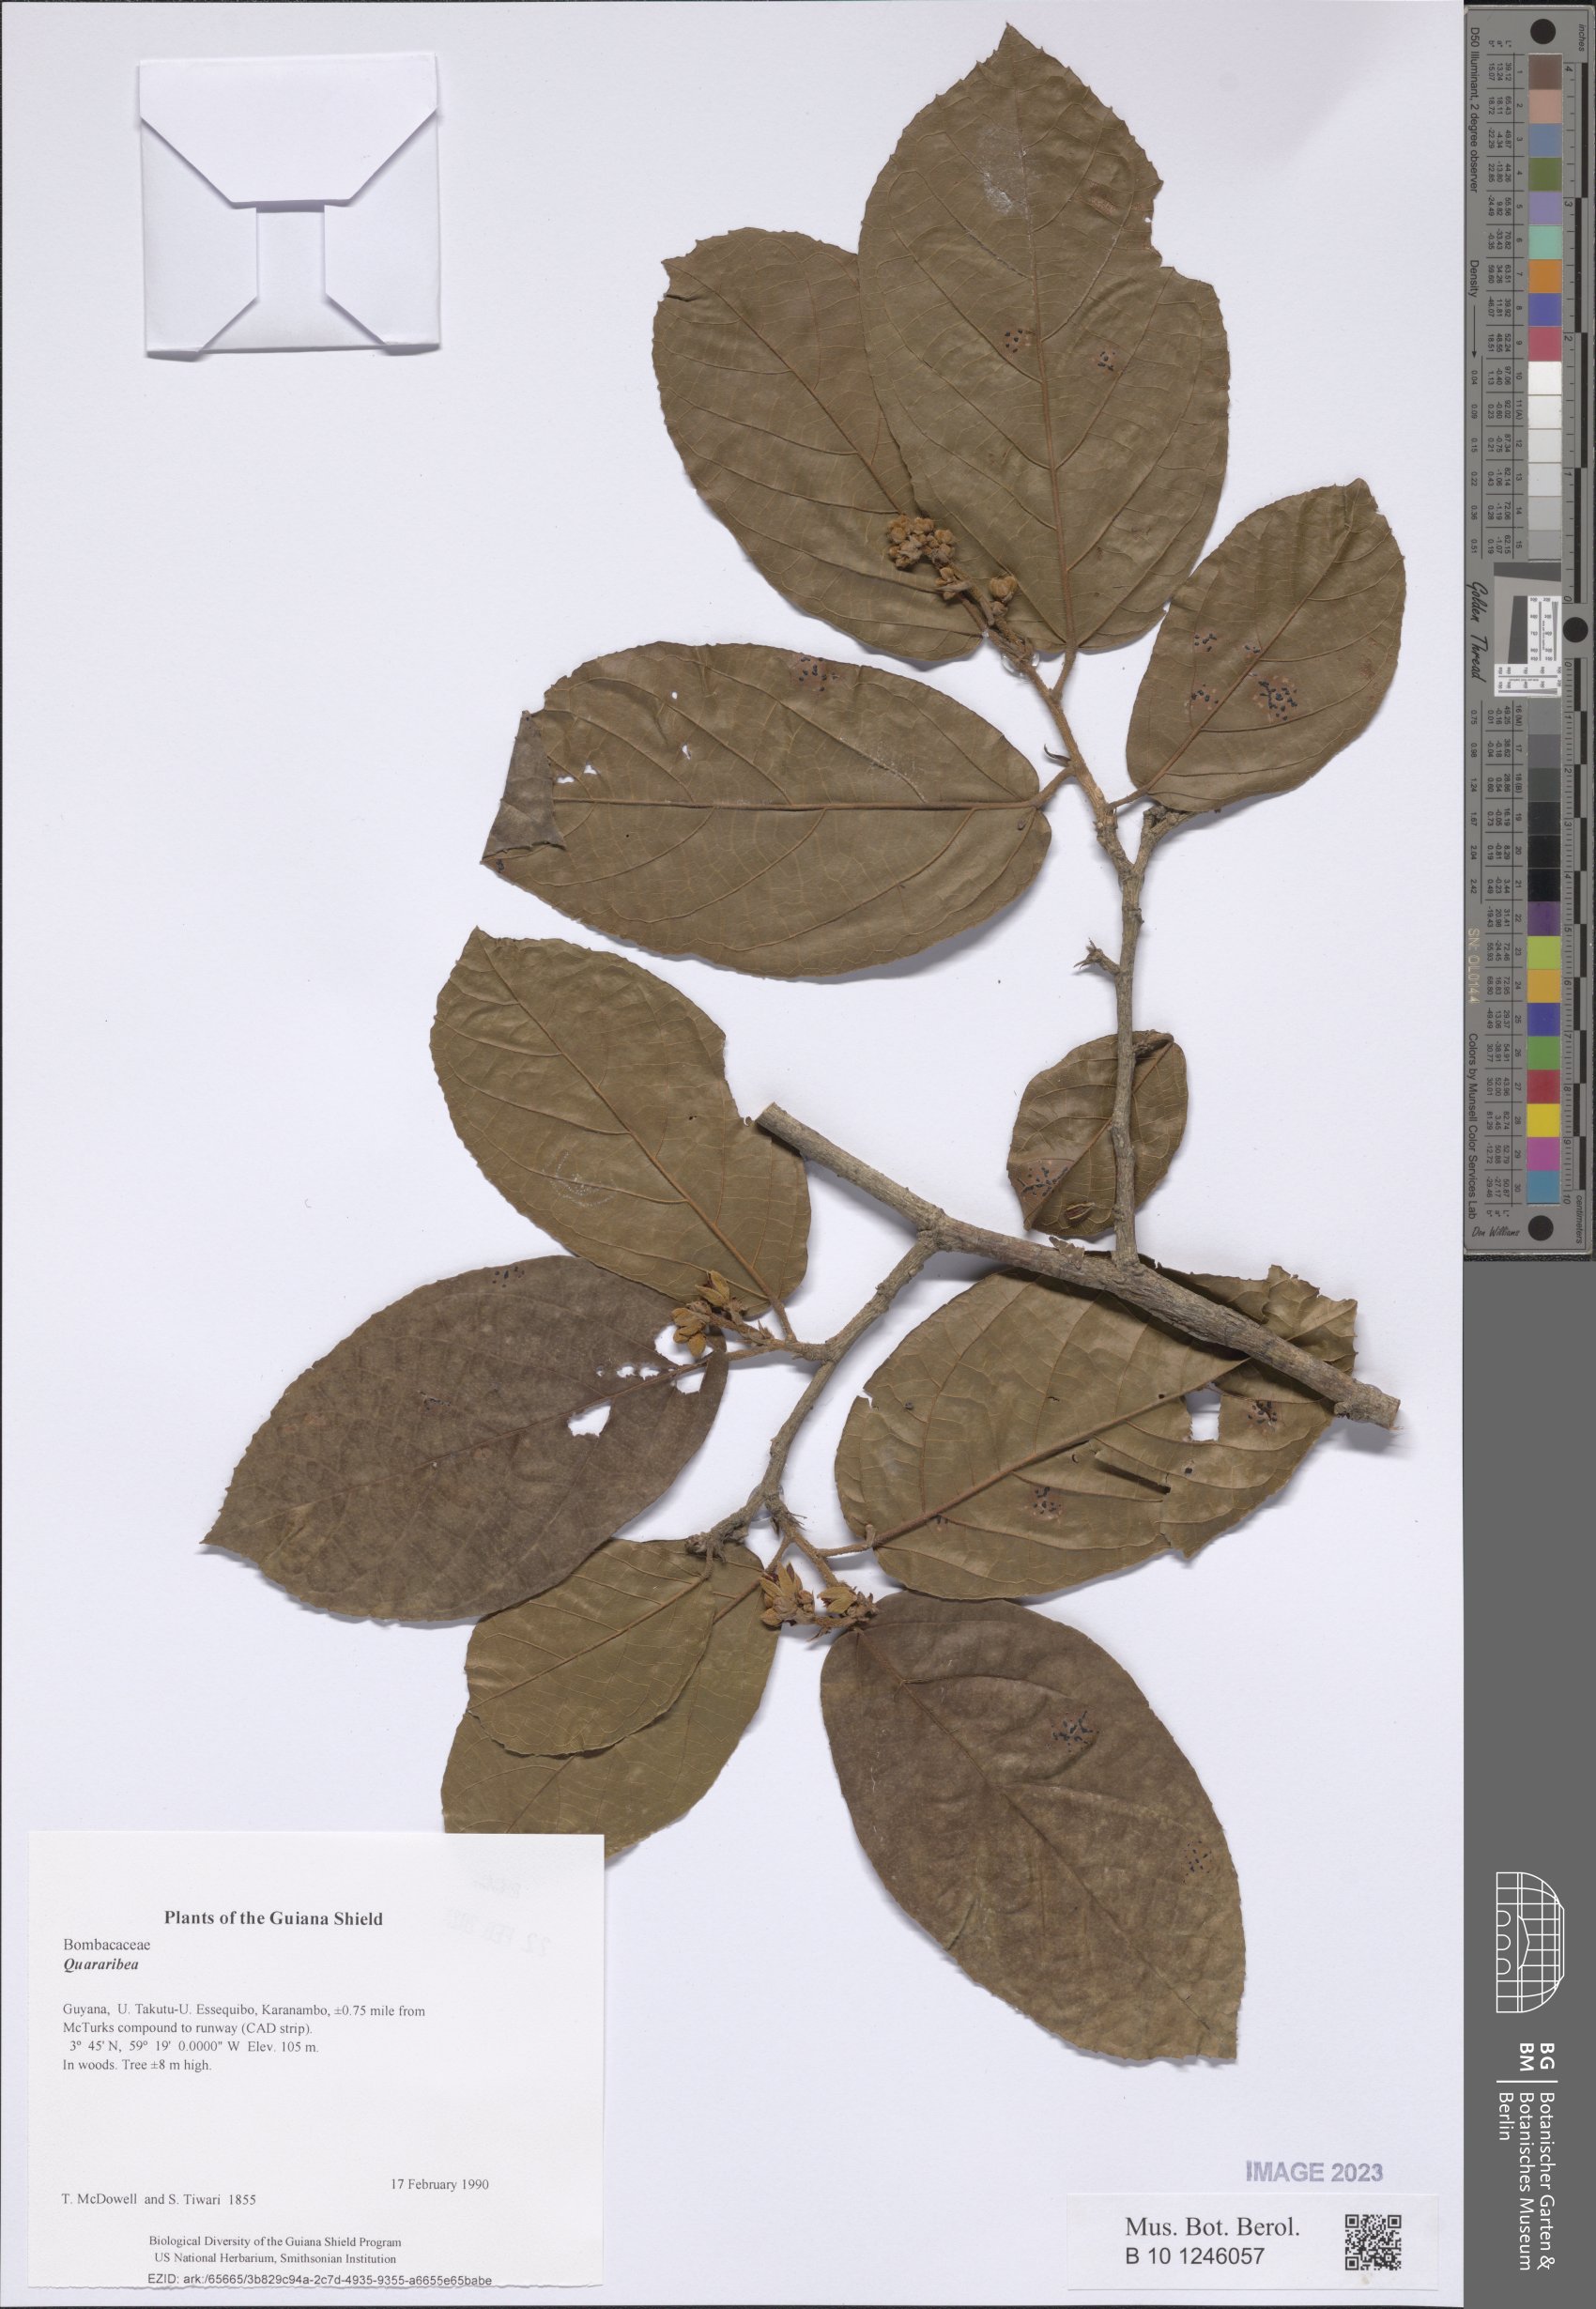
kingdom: Plantae
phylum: Tracheophyta
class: Magnoliopsida
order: Malvales
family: Malvaceae
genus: Quararibea
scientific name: Quararibea
